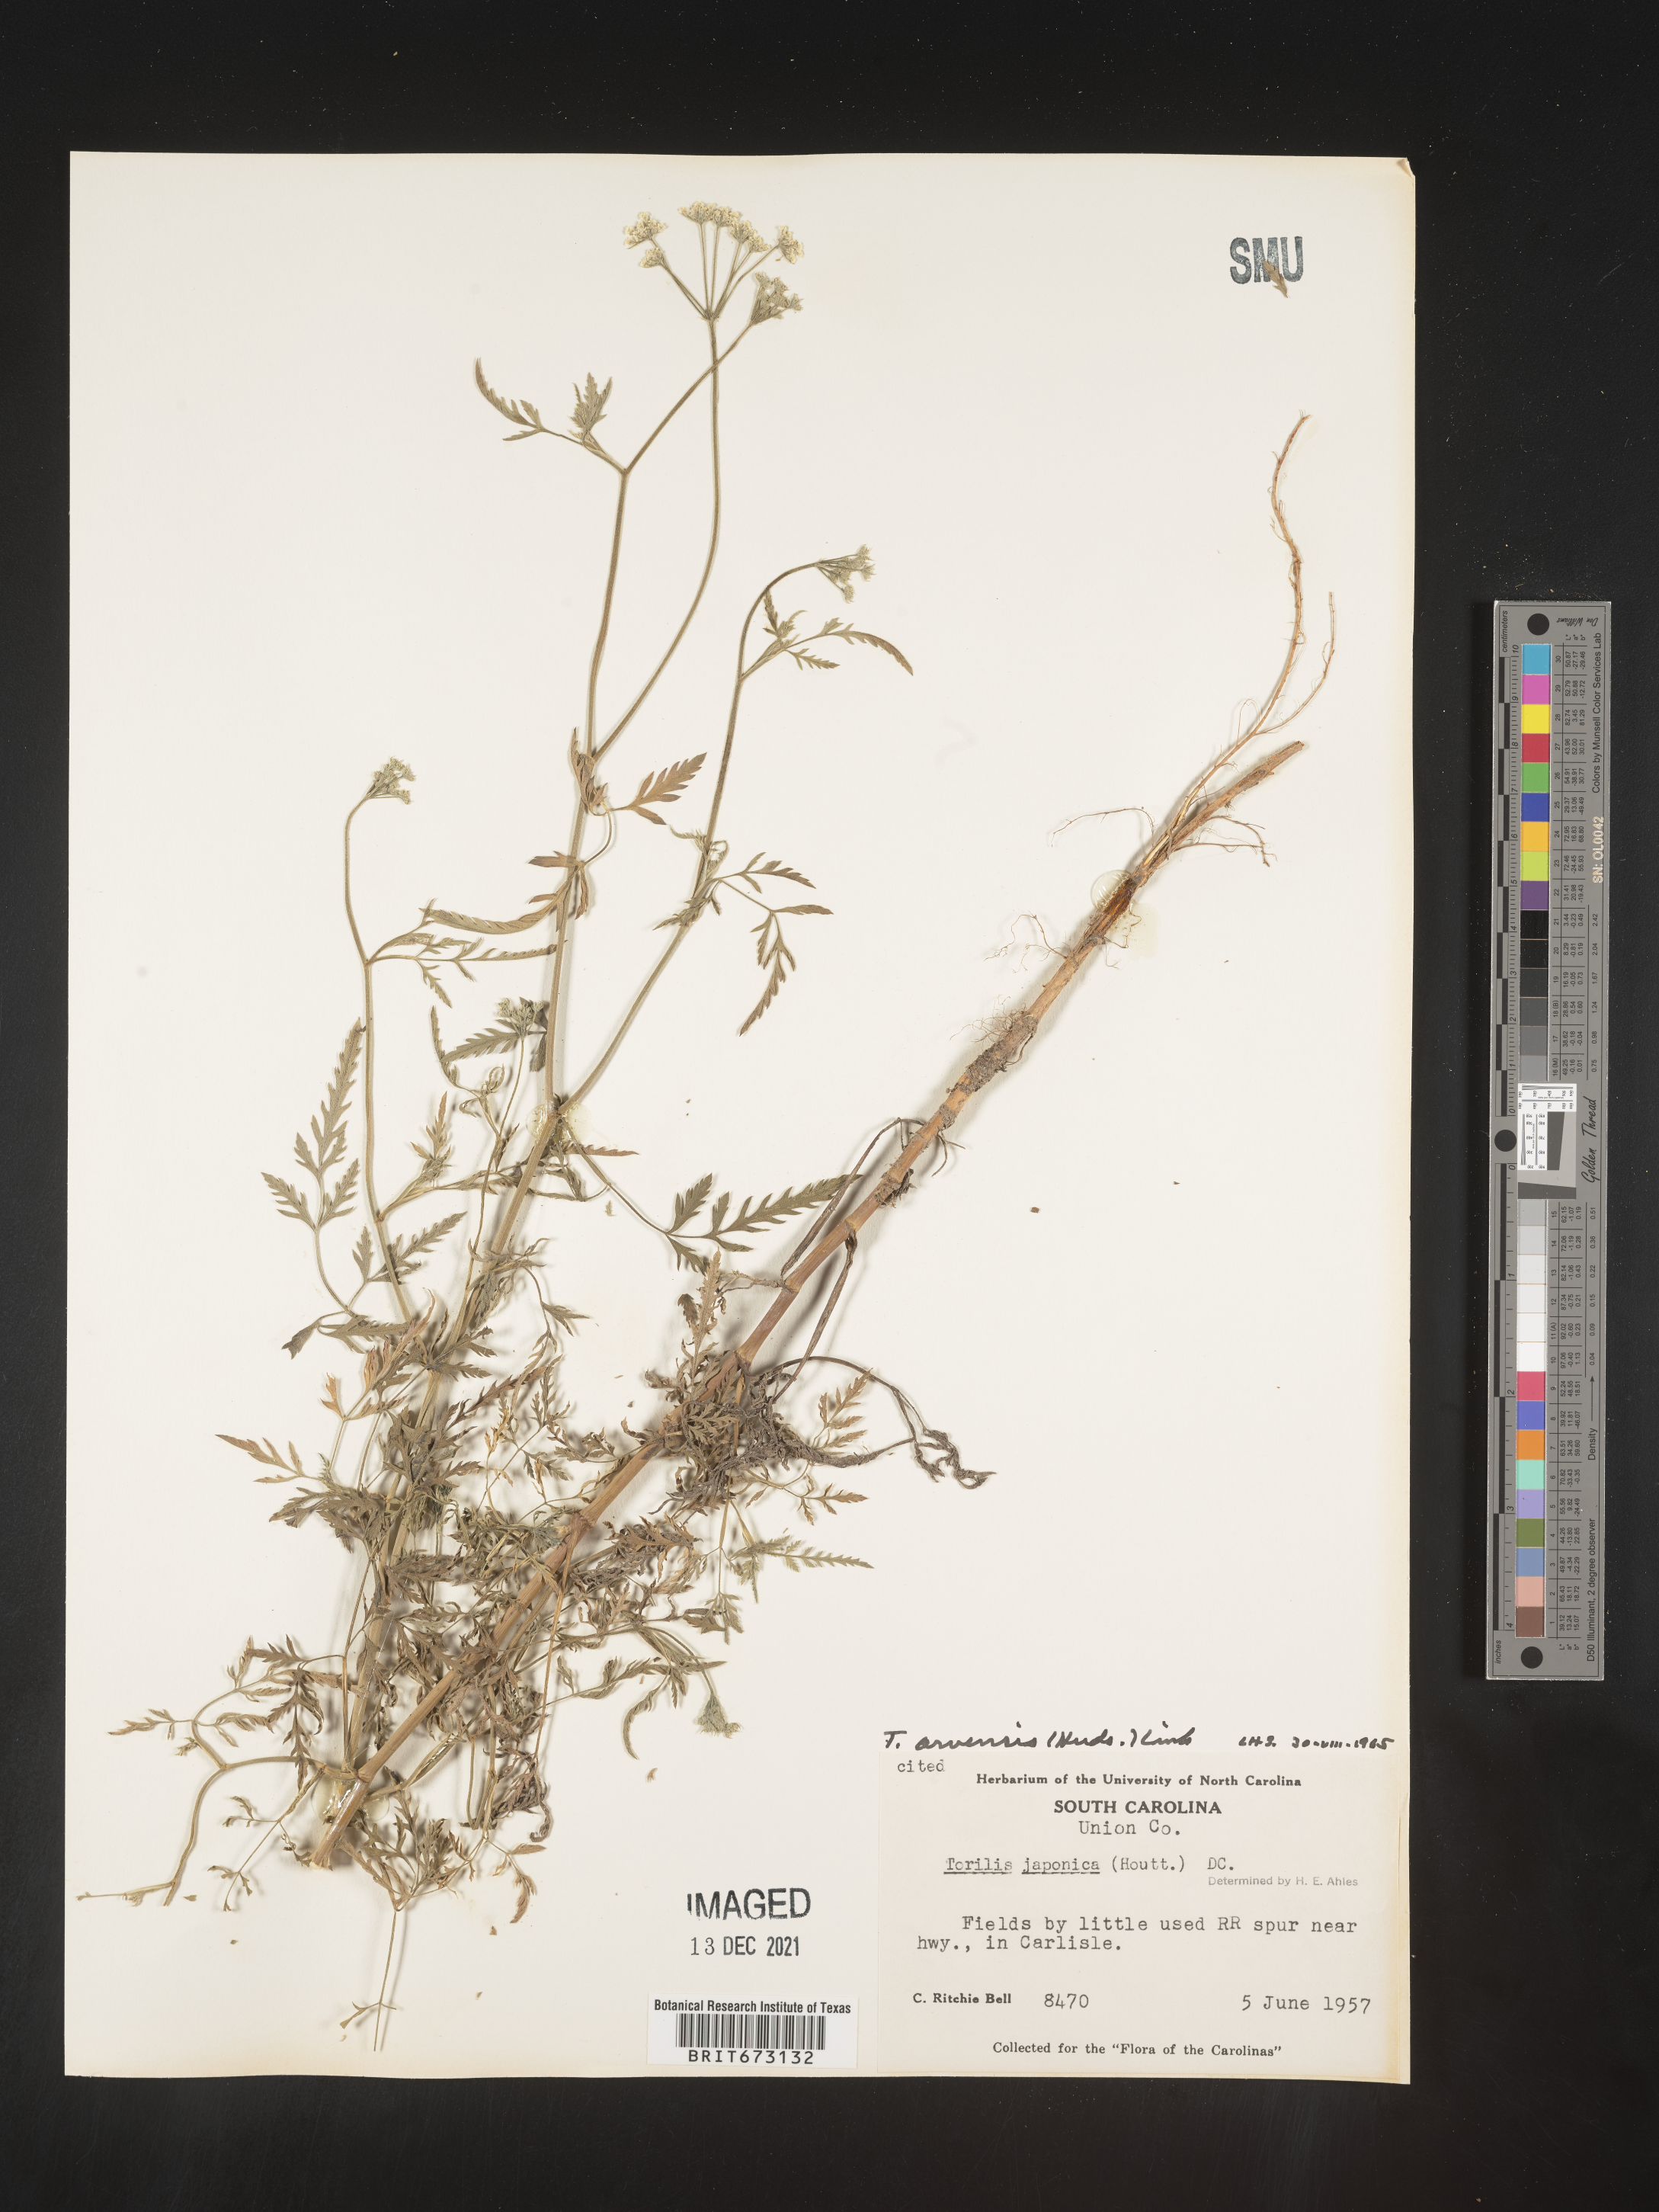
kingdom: Plantae
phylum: Tracheophyta
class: Magnoliopsida
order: Apiales
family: Apiaceae
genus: Torilis
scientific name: Torilis arvensis
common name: Spreading hedge-parsley
